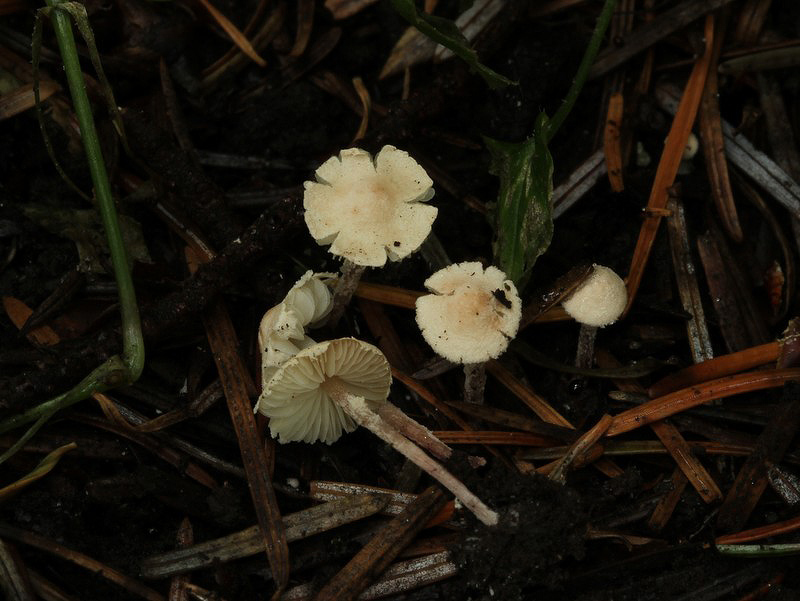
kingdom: Fungi
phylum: Basidiomycota
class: Agaricomycetes
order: Agaricales
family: Agaricaceae
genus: Cystolepiota
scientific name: Cystolepiota seminuda
